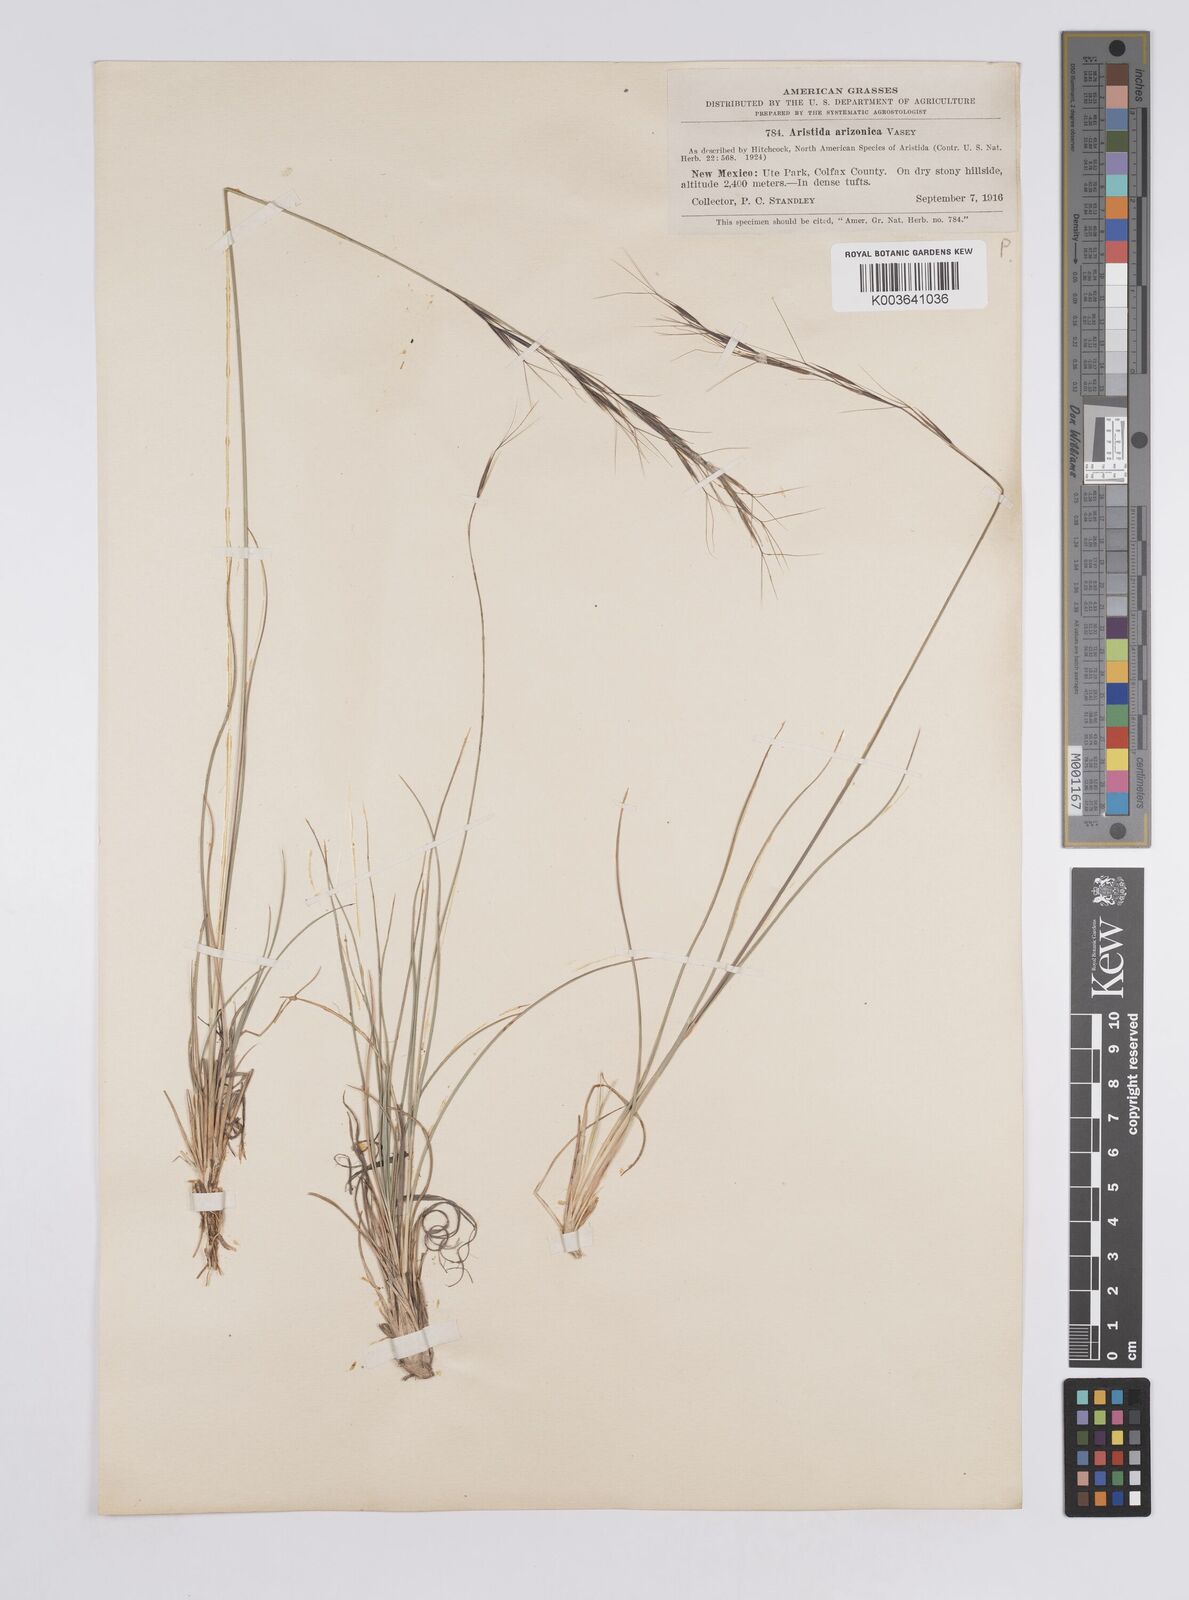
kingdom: Plantae
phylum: Tracheophyta
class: Liliopsida
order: Poales
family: Poaceae
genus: Aristida
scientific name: Aristida arizonica
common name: Arizona threeawn
